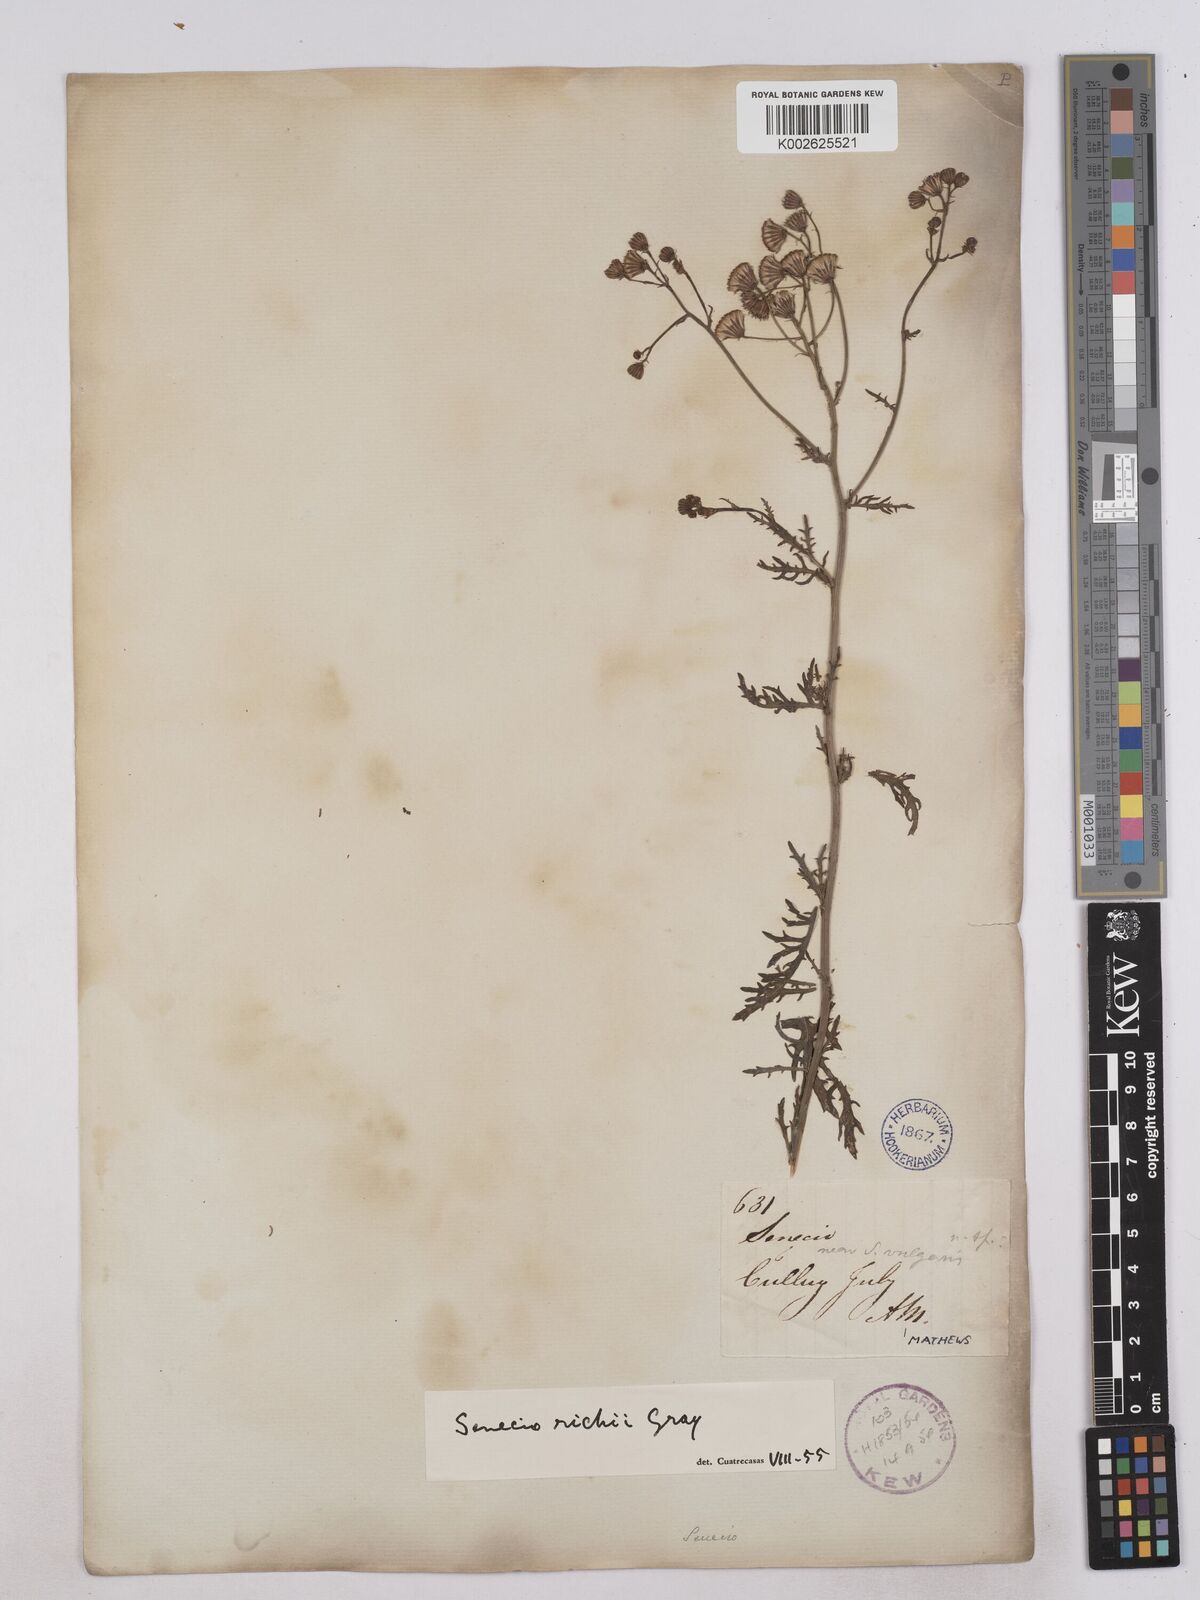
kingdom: Plantae
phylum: Tracheophyta
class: Magnoliopsida
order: Asterales
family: Asteraceae
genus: Senecio
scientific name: Senecio richii
